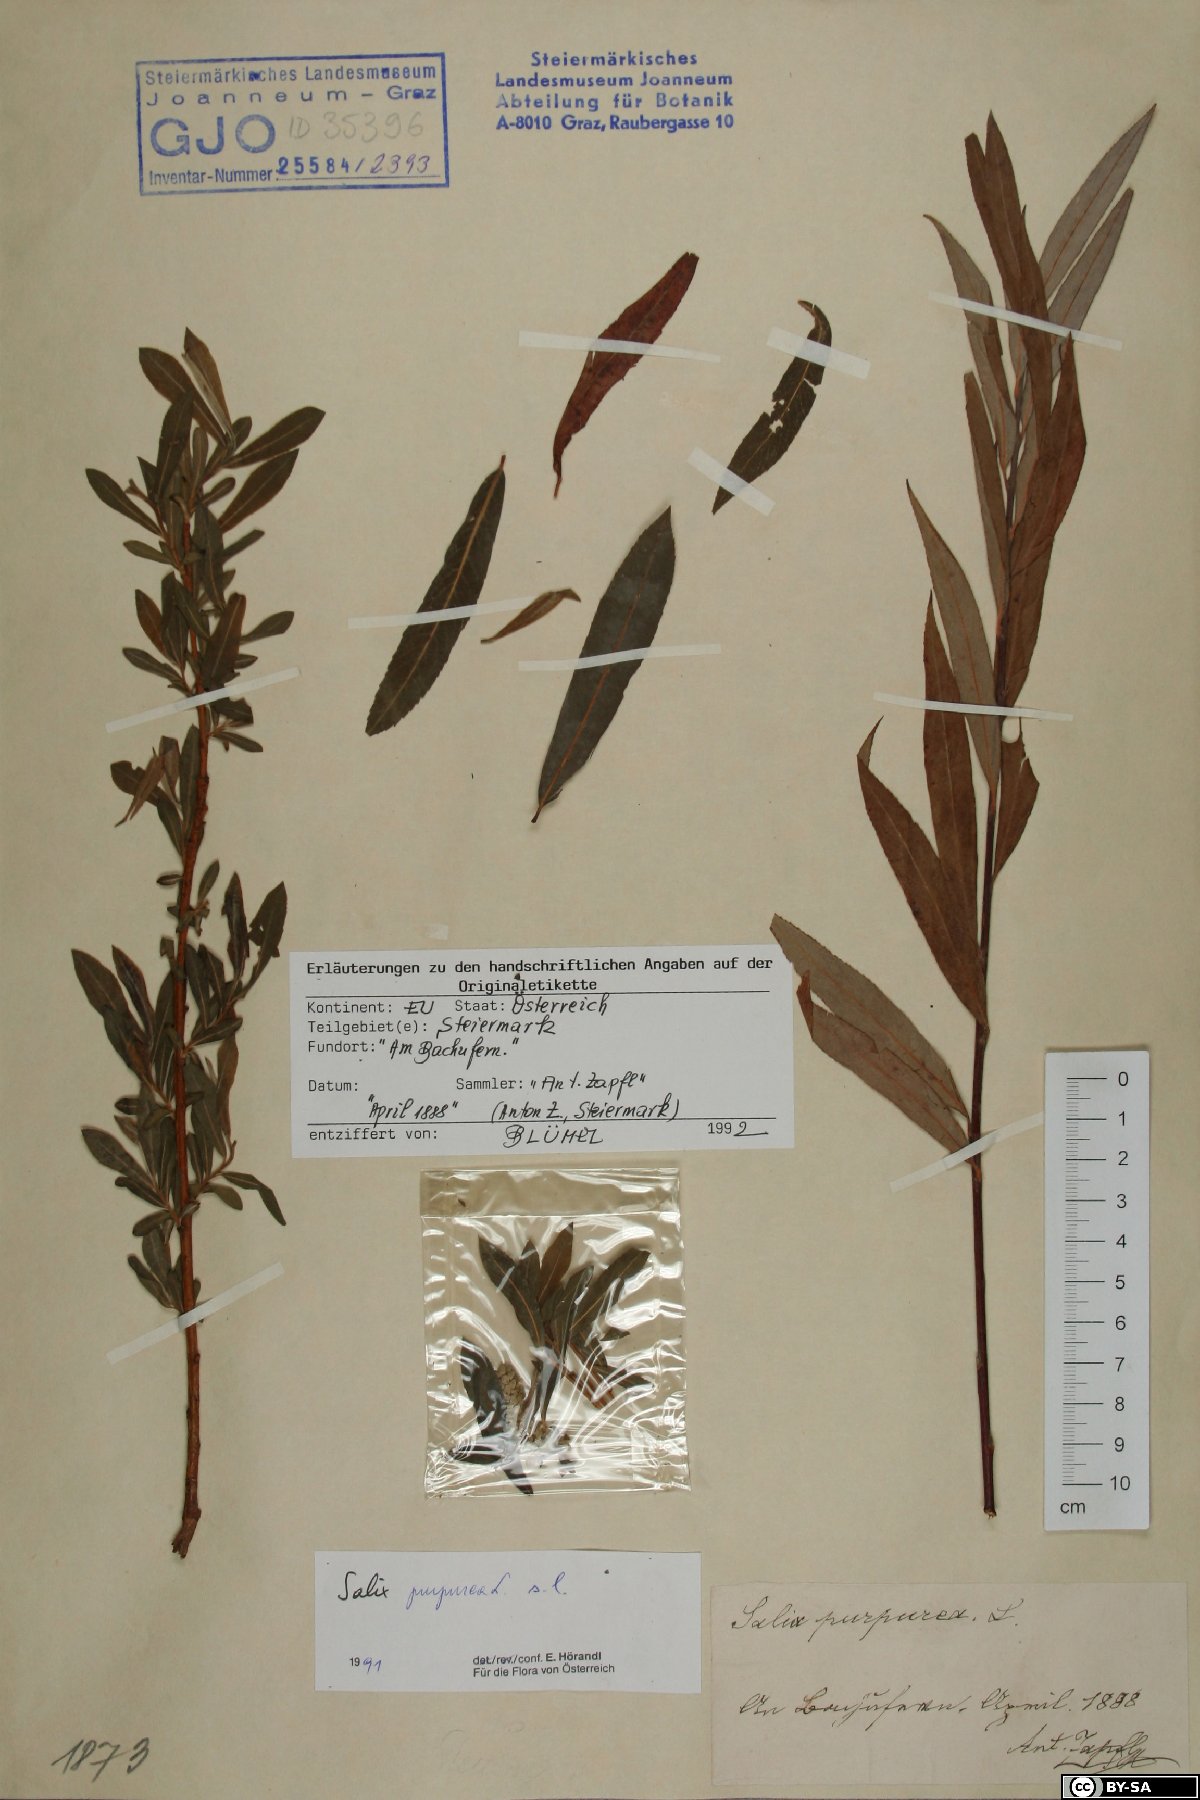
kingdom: Plantae
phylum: Tracheophyta
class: Magnoliopsida
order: Malpighiales
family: Salicaceae
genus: Salix
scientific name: Salix purpurea
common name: Purple willow
